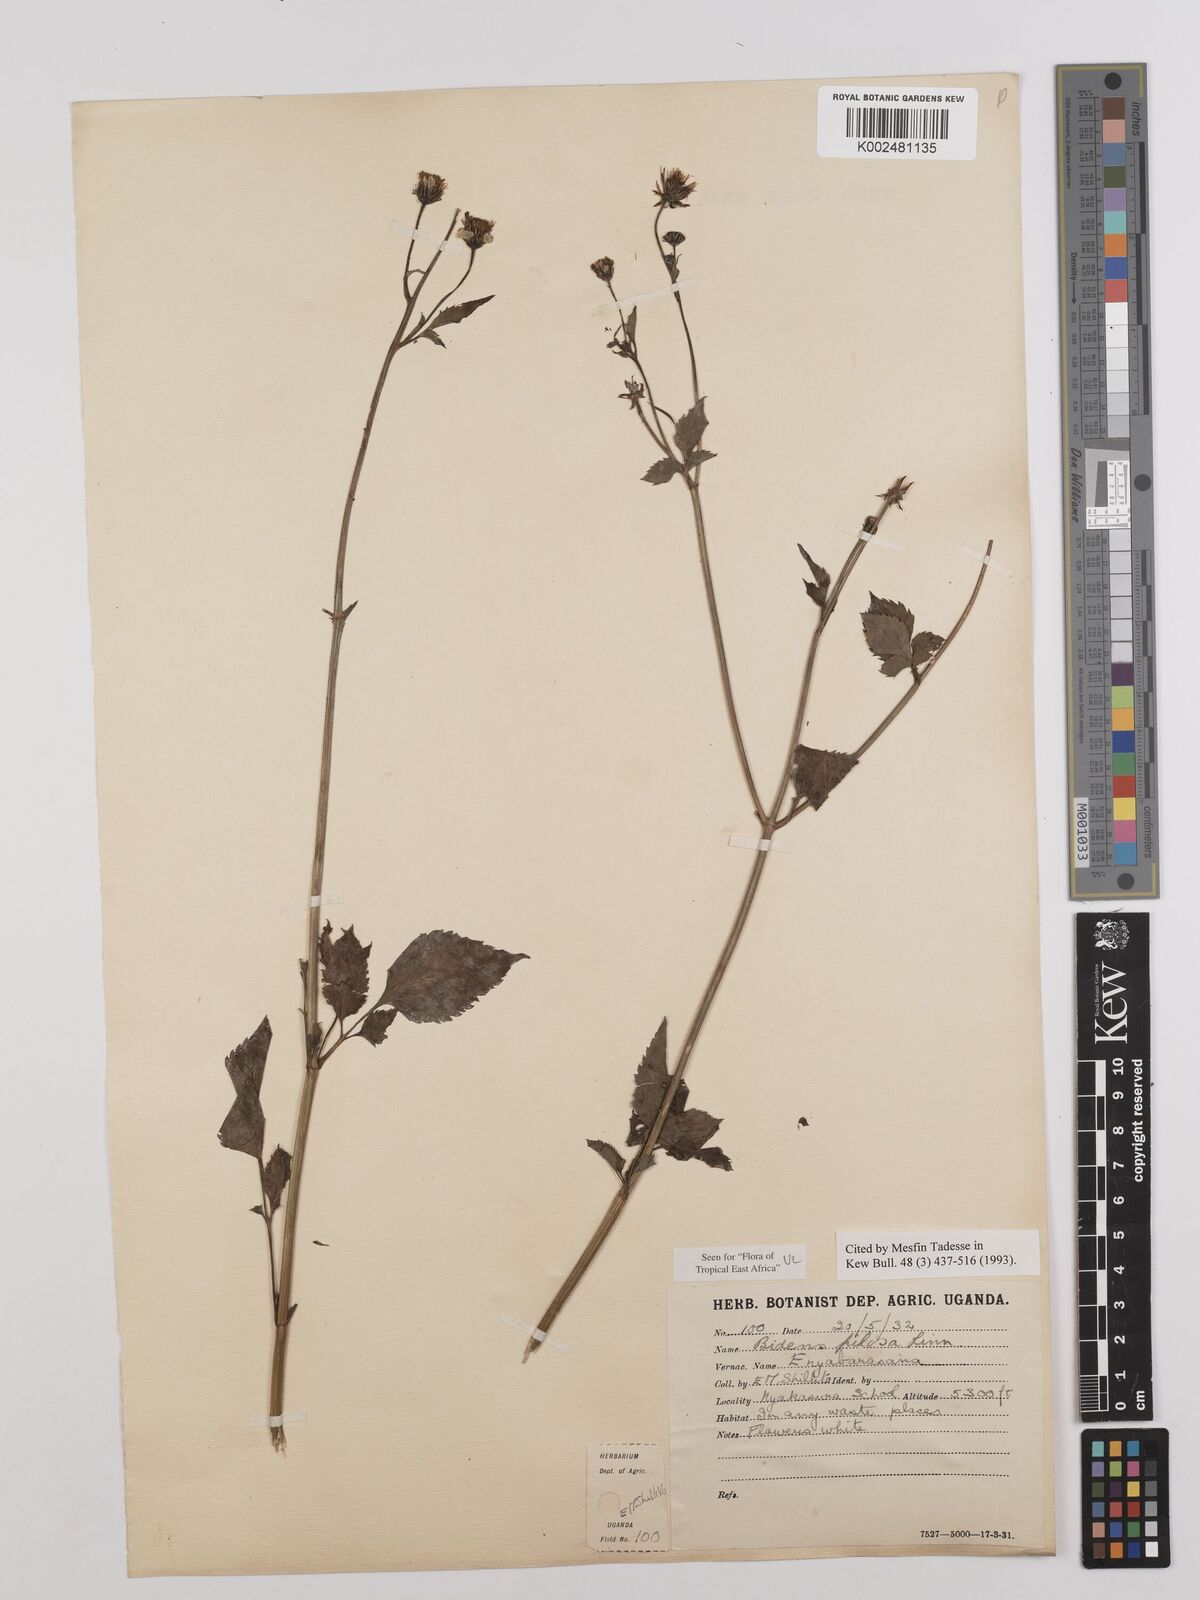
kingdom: Plantae
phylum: Tracheophyta
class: Magnoliopsida
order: Asterales
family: Asteraceae
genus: Bidens
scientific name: Bidens pilosa
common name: Black-jack
